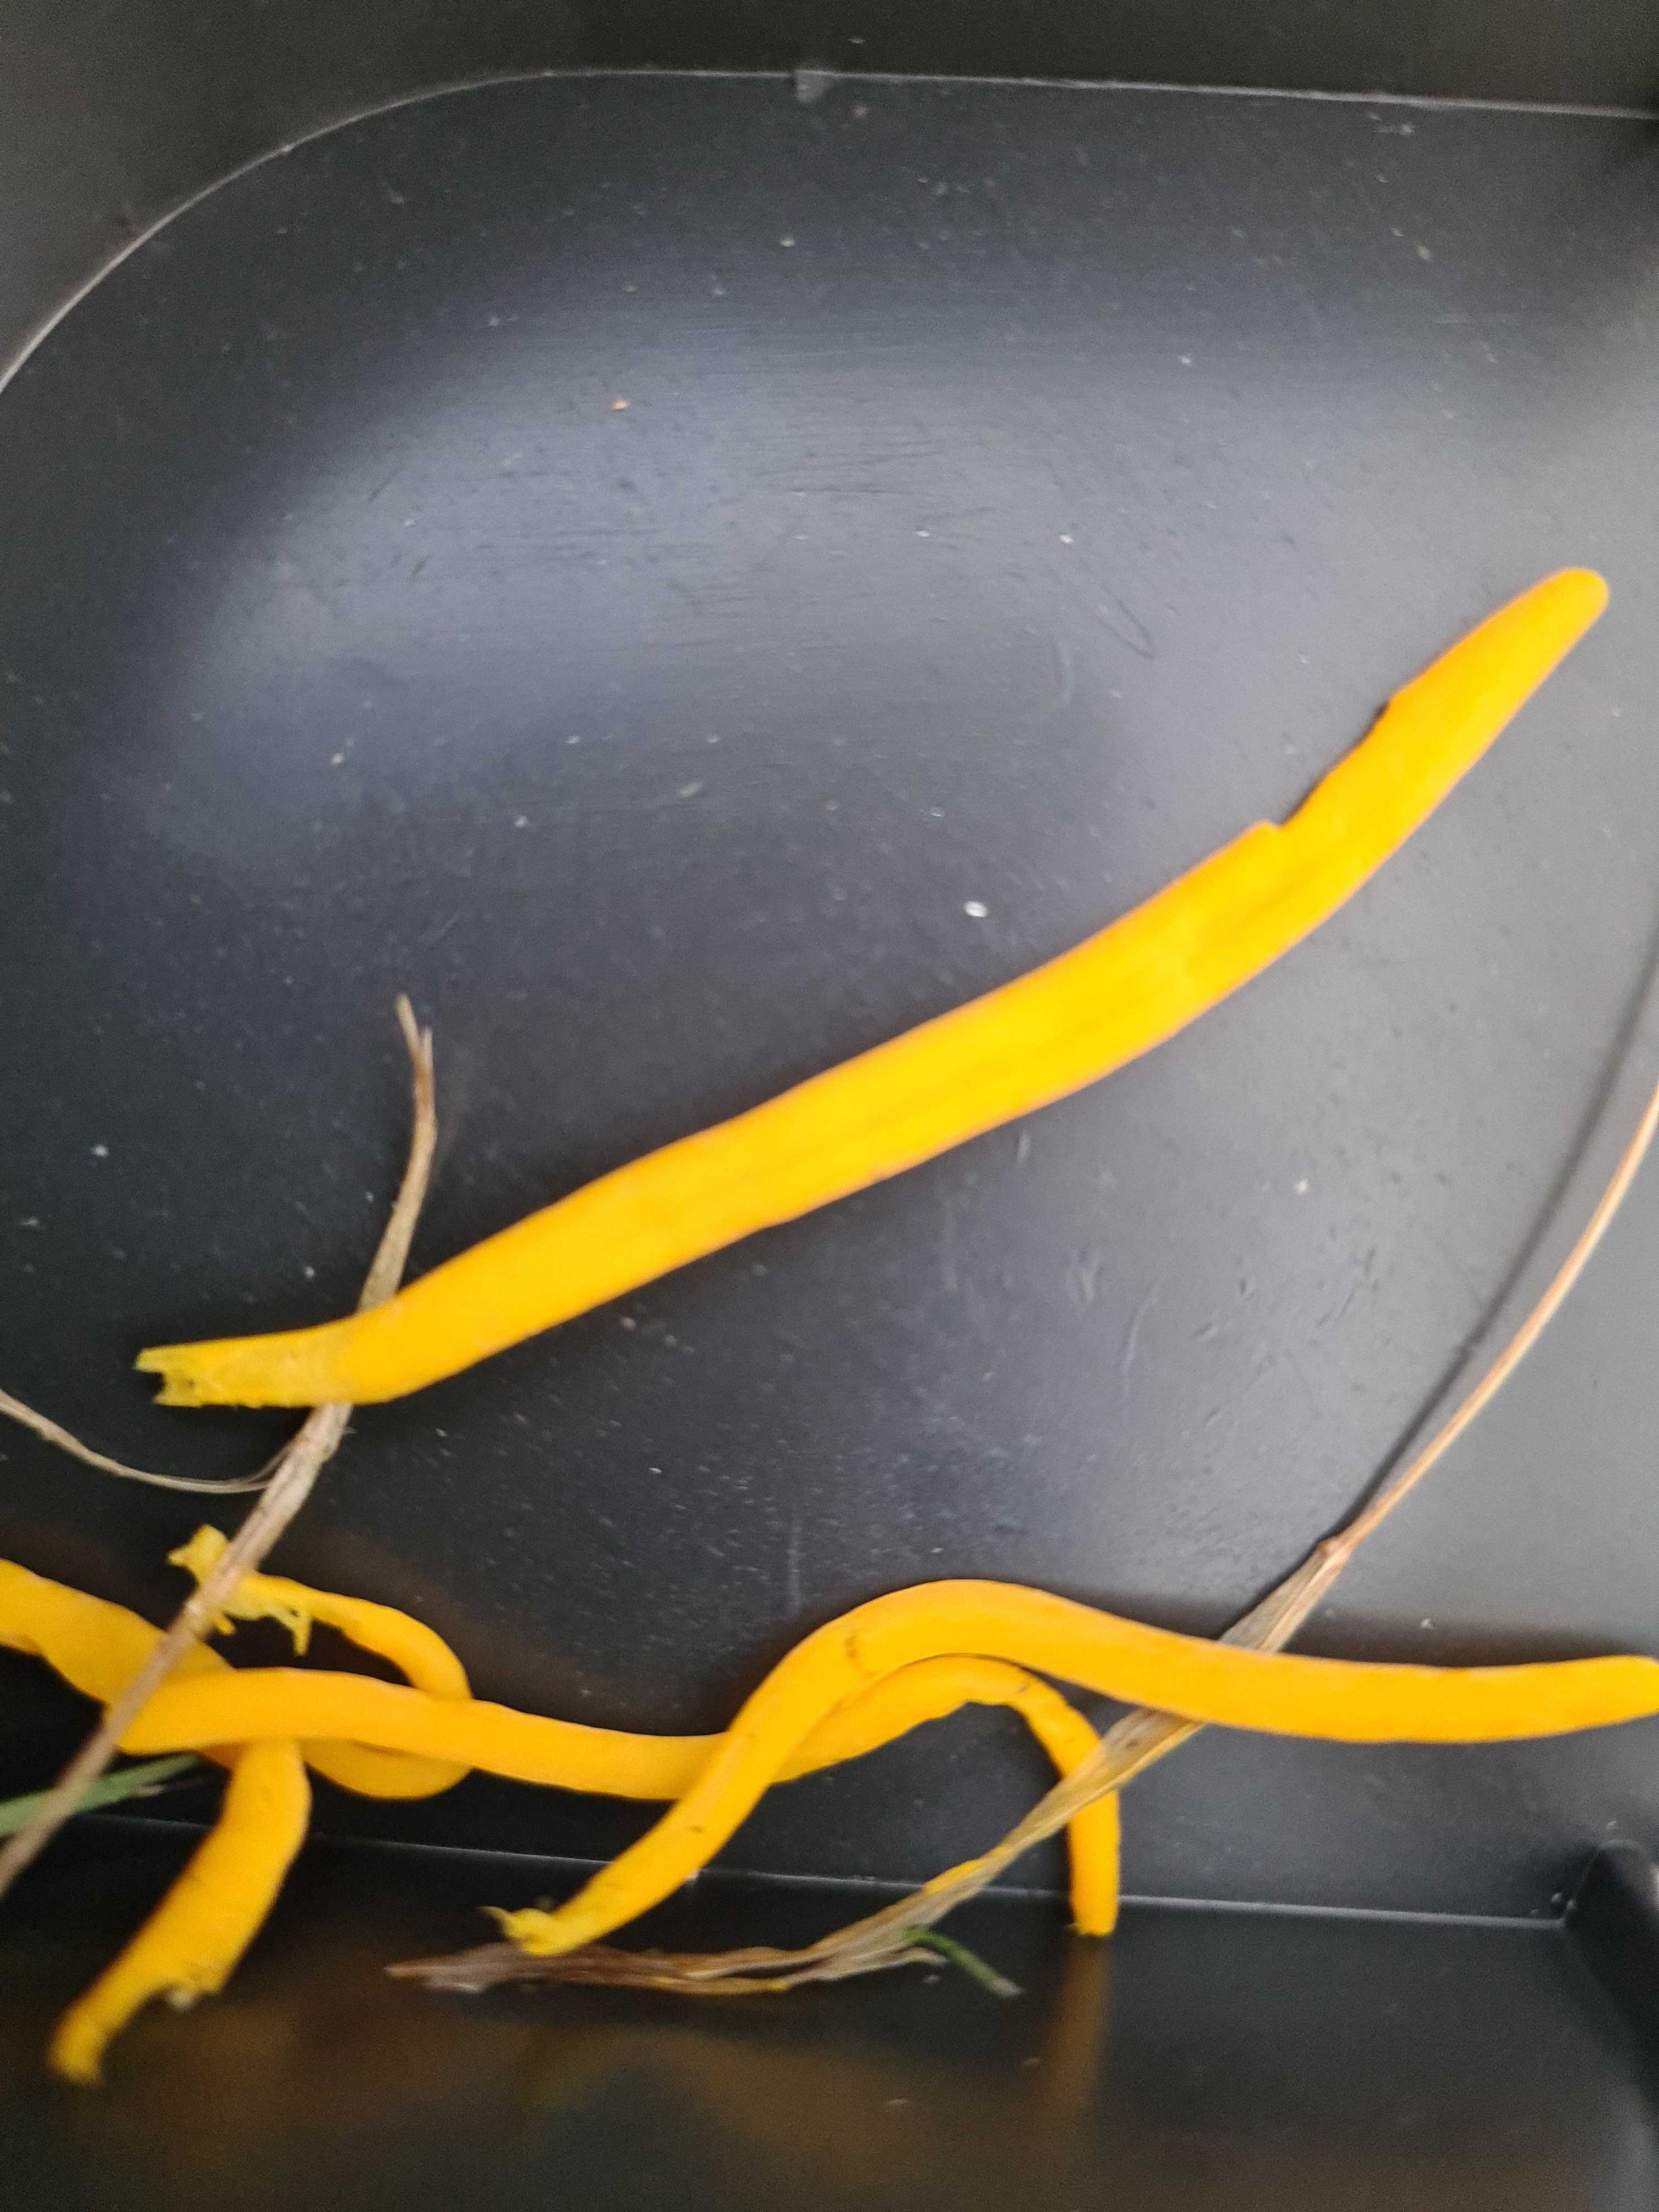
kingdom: Fungi
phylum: Basidiomycota
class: Agaricomycetes
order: Agaricales
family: Clavariaceae
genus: Clavulinopsis
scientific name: Clavulinopsis
